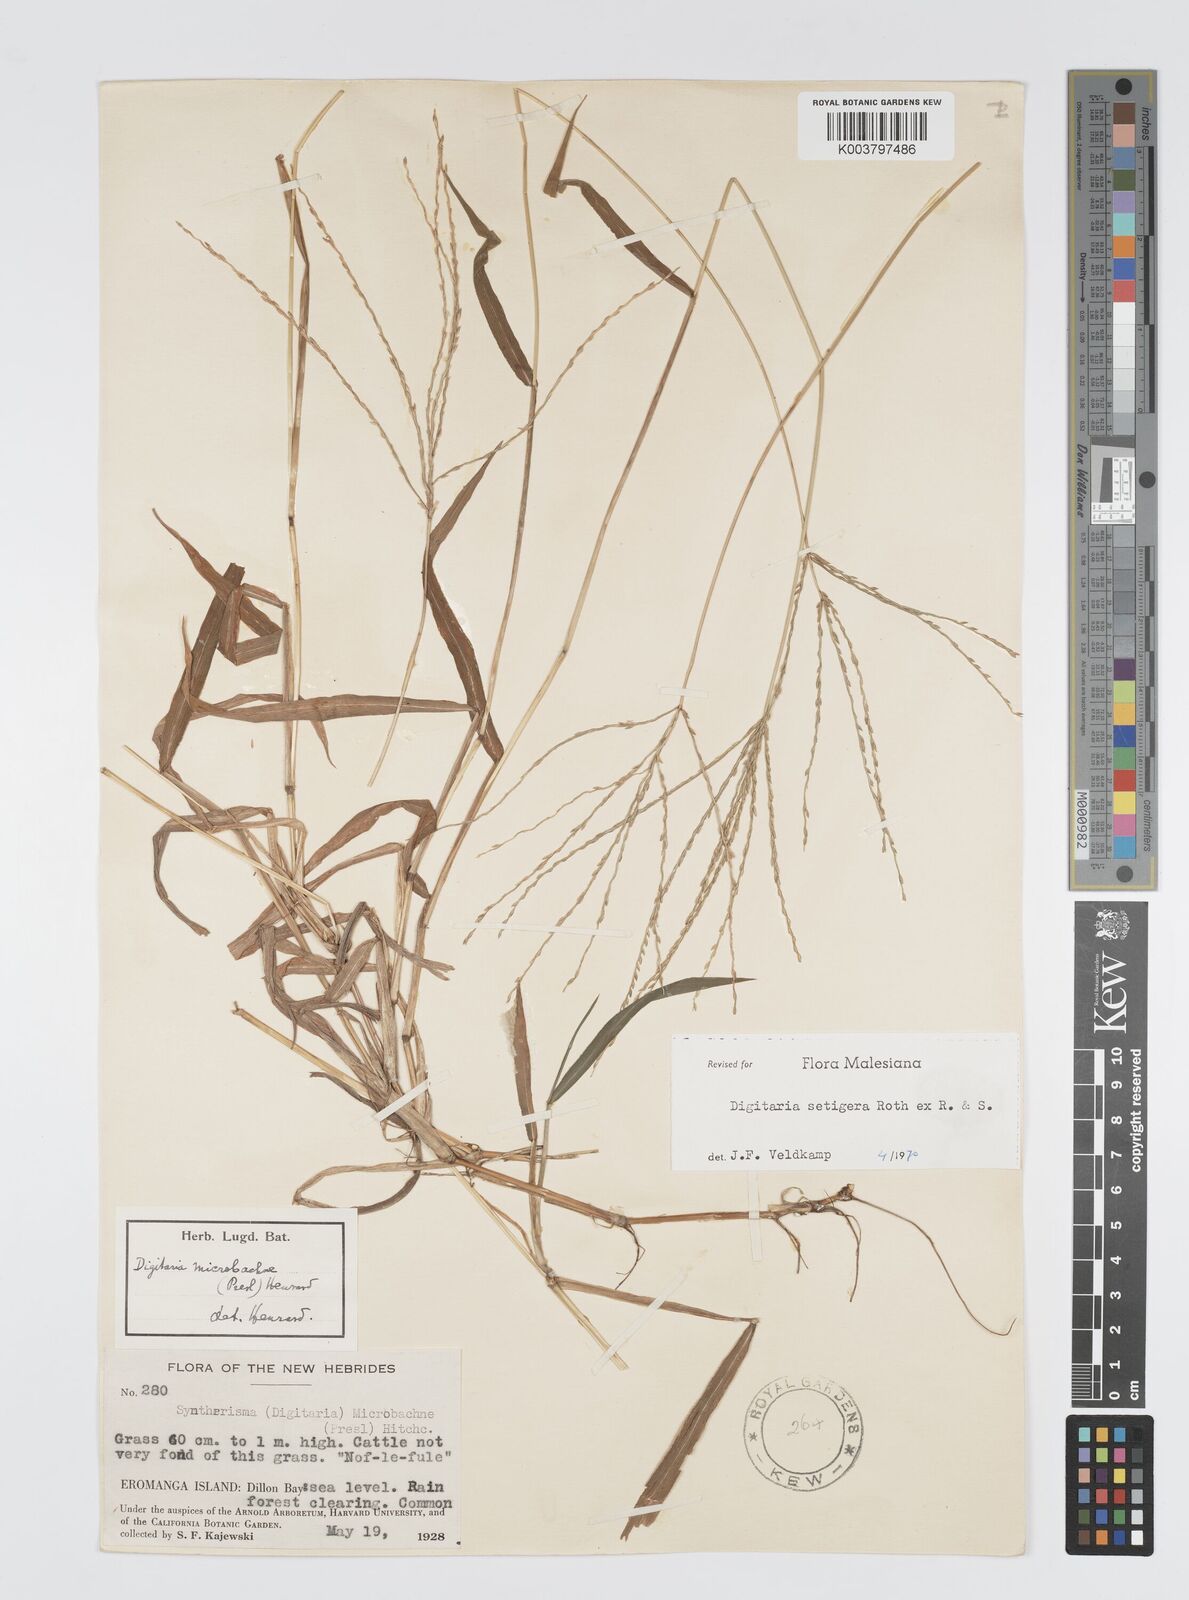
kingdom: Plantae
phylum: Tracheophyta
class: Liliopsida
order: Poales
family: Poaceae
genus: Digitaria
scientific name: Digitaria setigera
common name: East indian crabgrass
